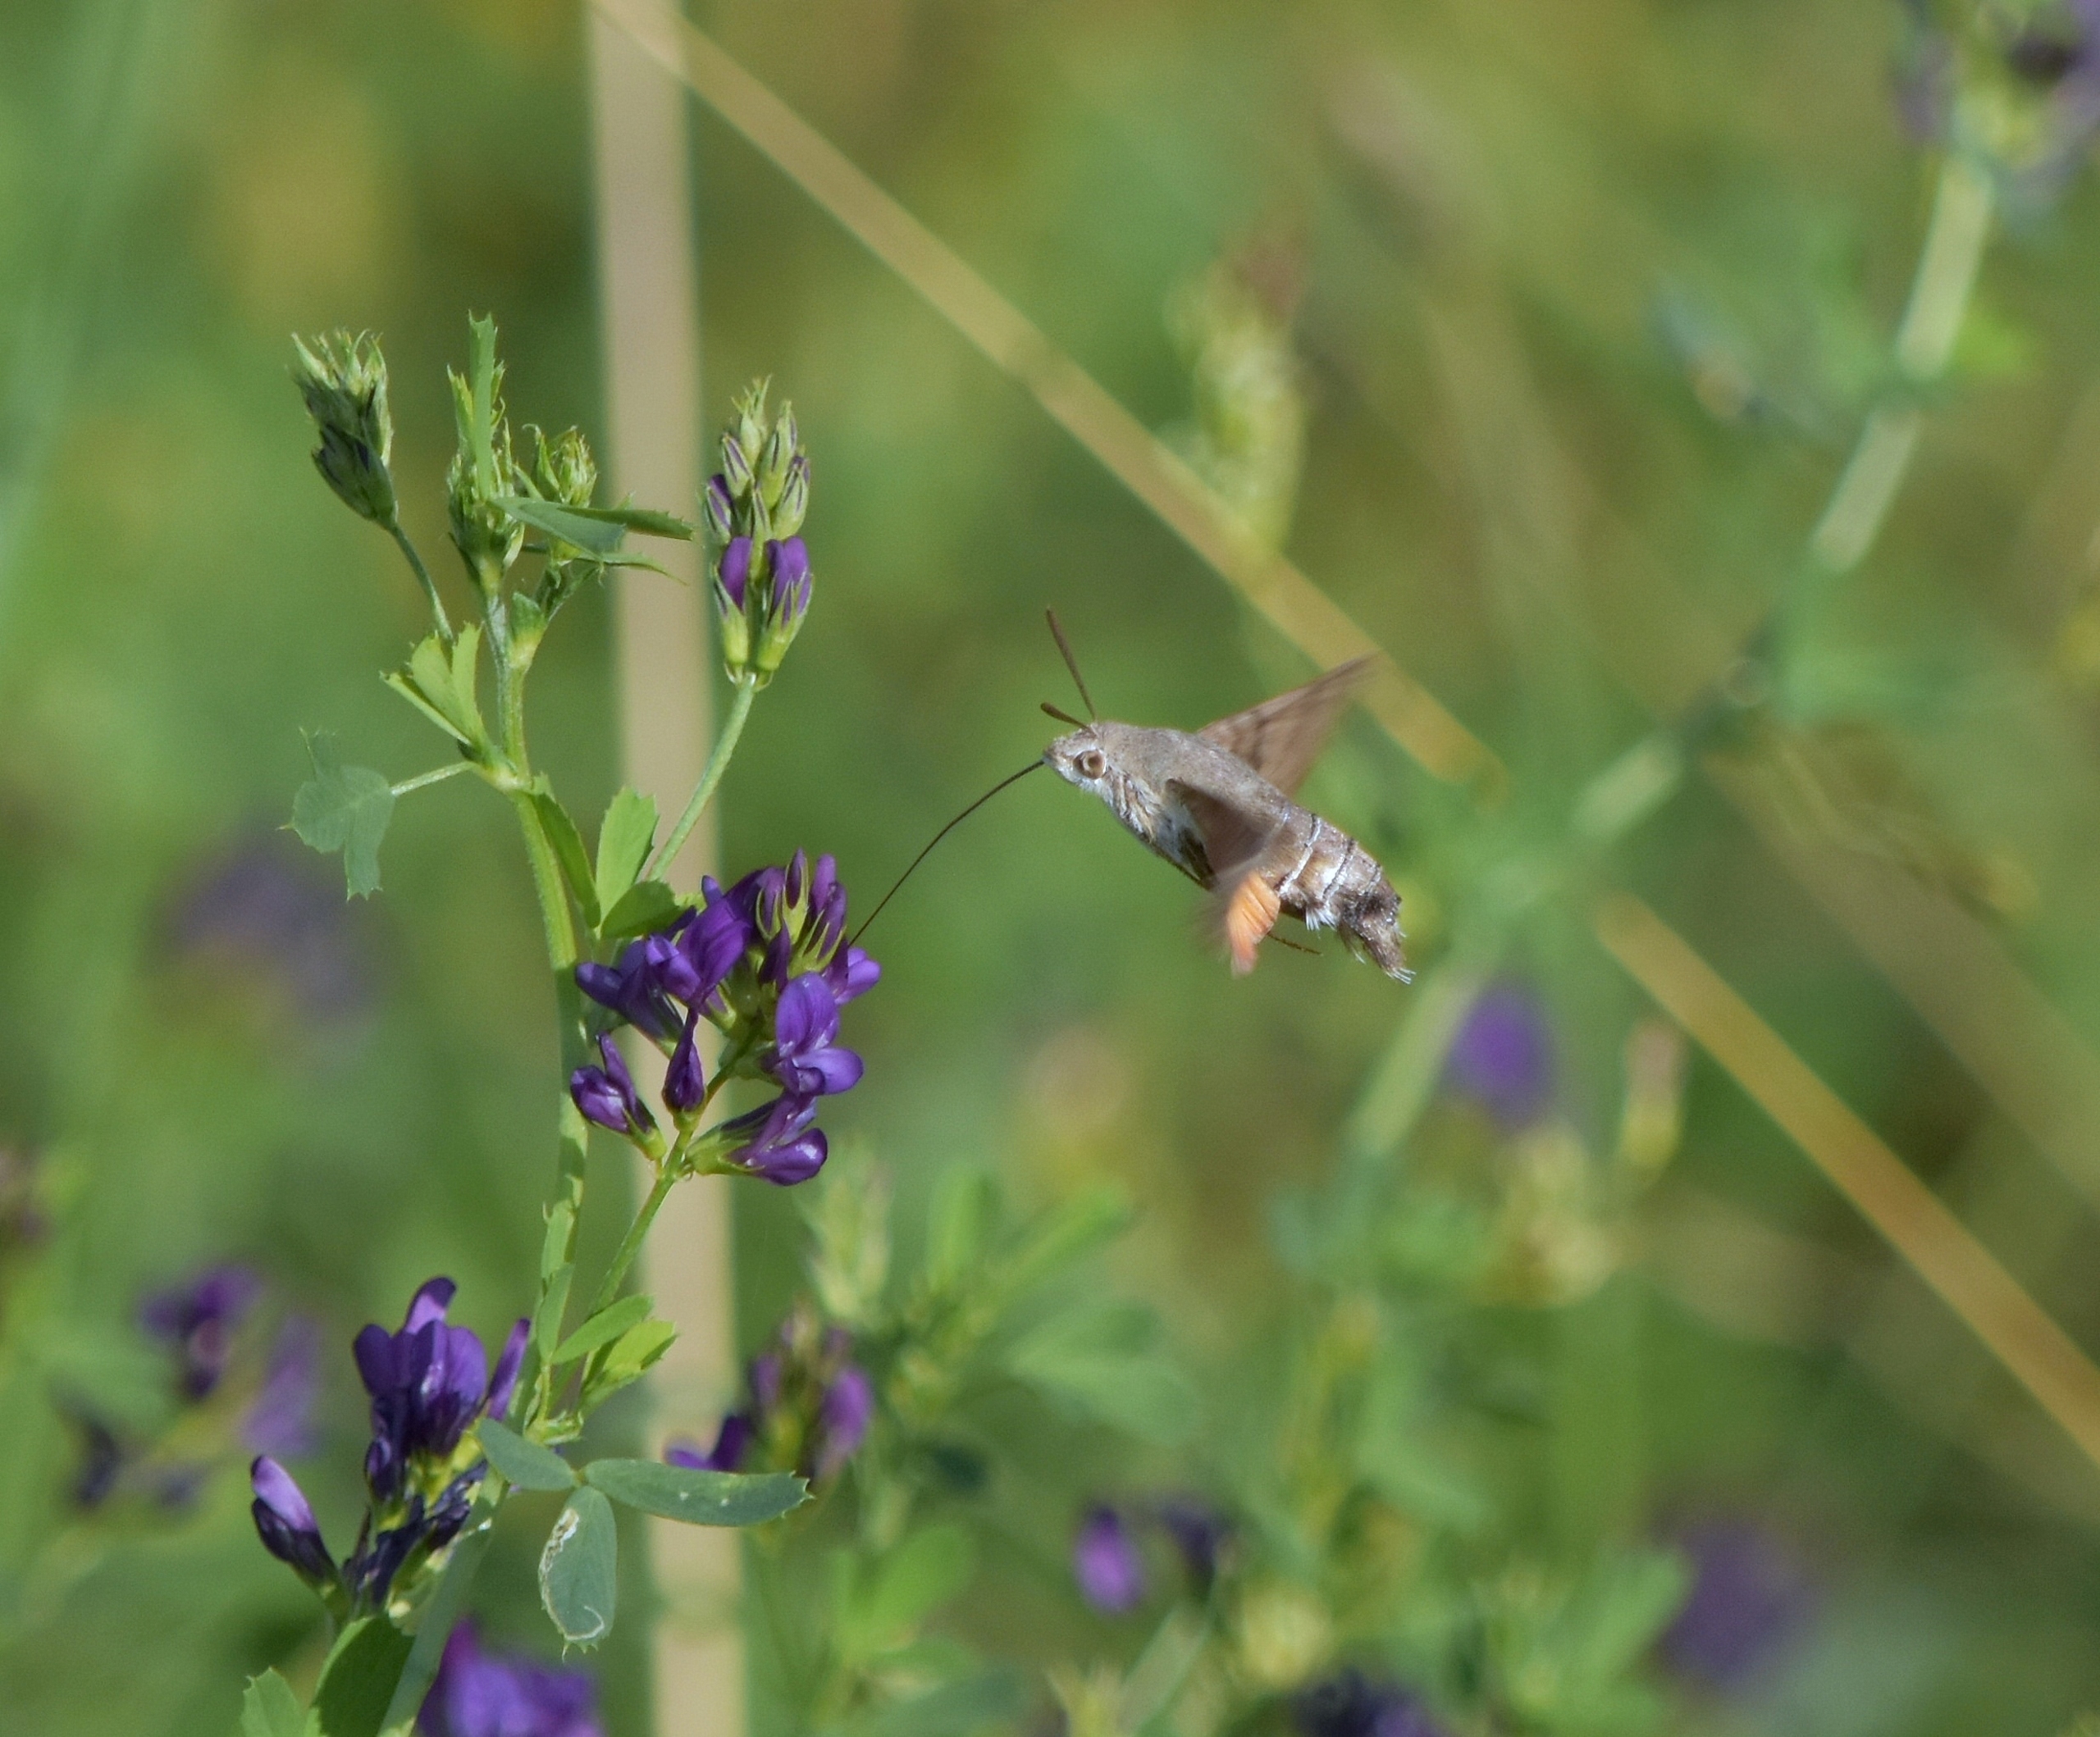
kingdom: Animalia
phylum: Arthropoda
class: Insecta
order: Lepidoptera
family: Sphingidae
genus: Macroglossum
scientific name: Macroglossum stellatarum
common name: Duehale
